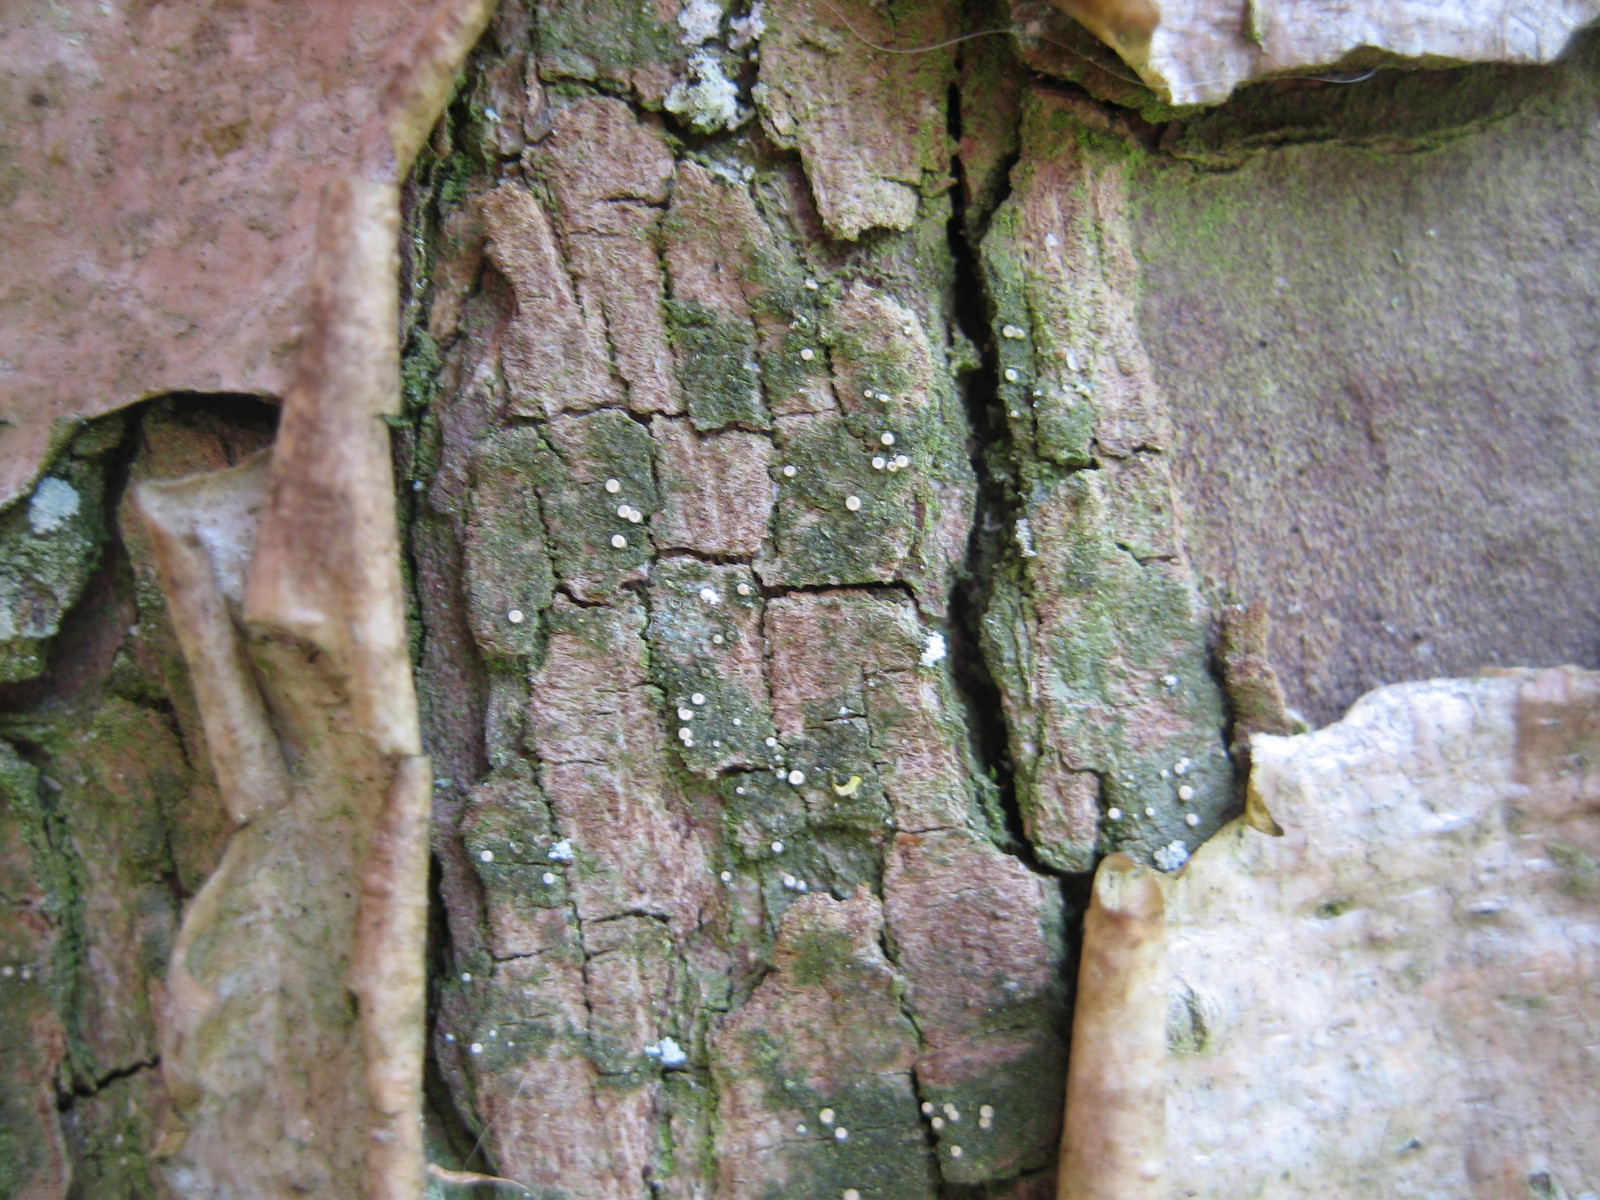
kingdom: Fungi
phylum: Ascomycota
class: Lecanoromycetes
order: Ostropales
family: Coenogoniaceae
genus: Coenogonium
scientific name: Coenogonium pineti
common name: liden vokslav
